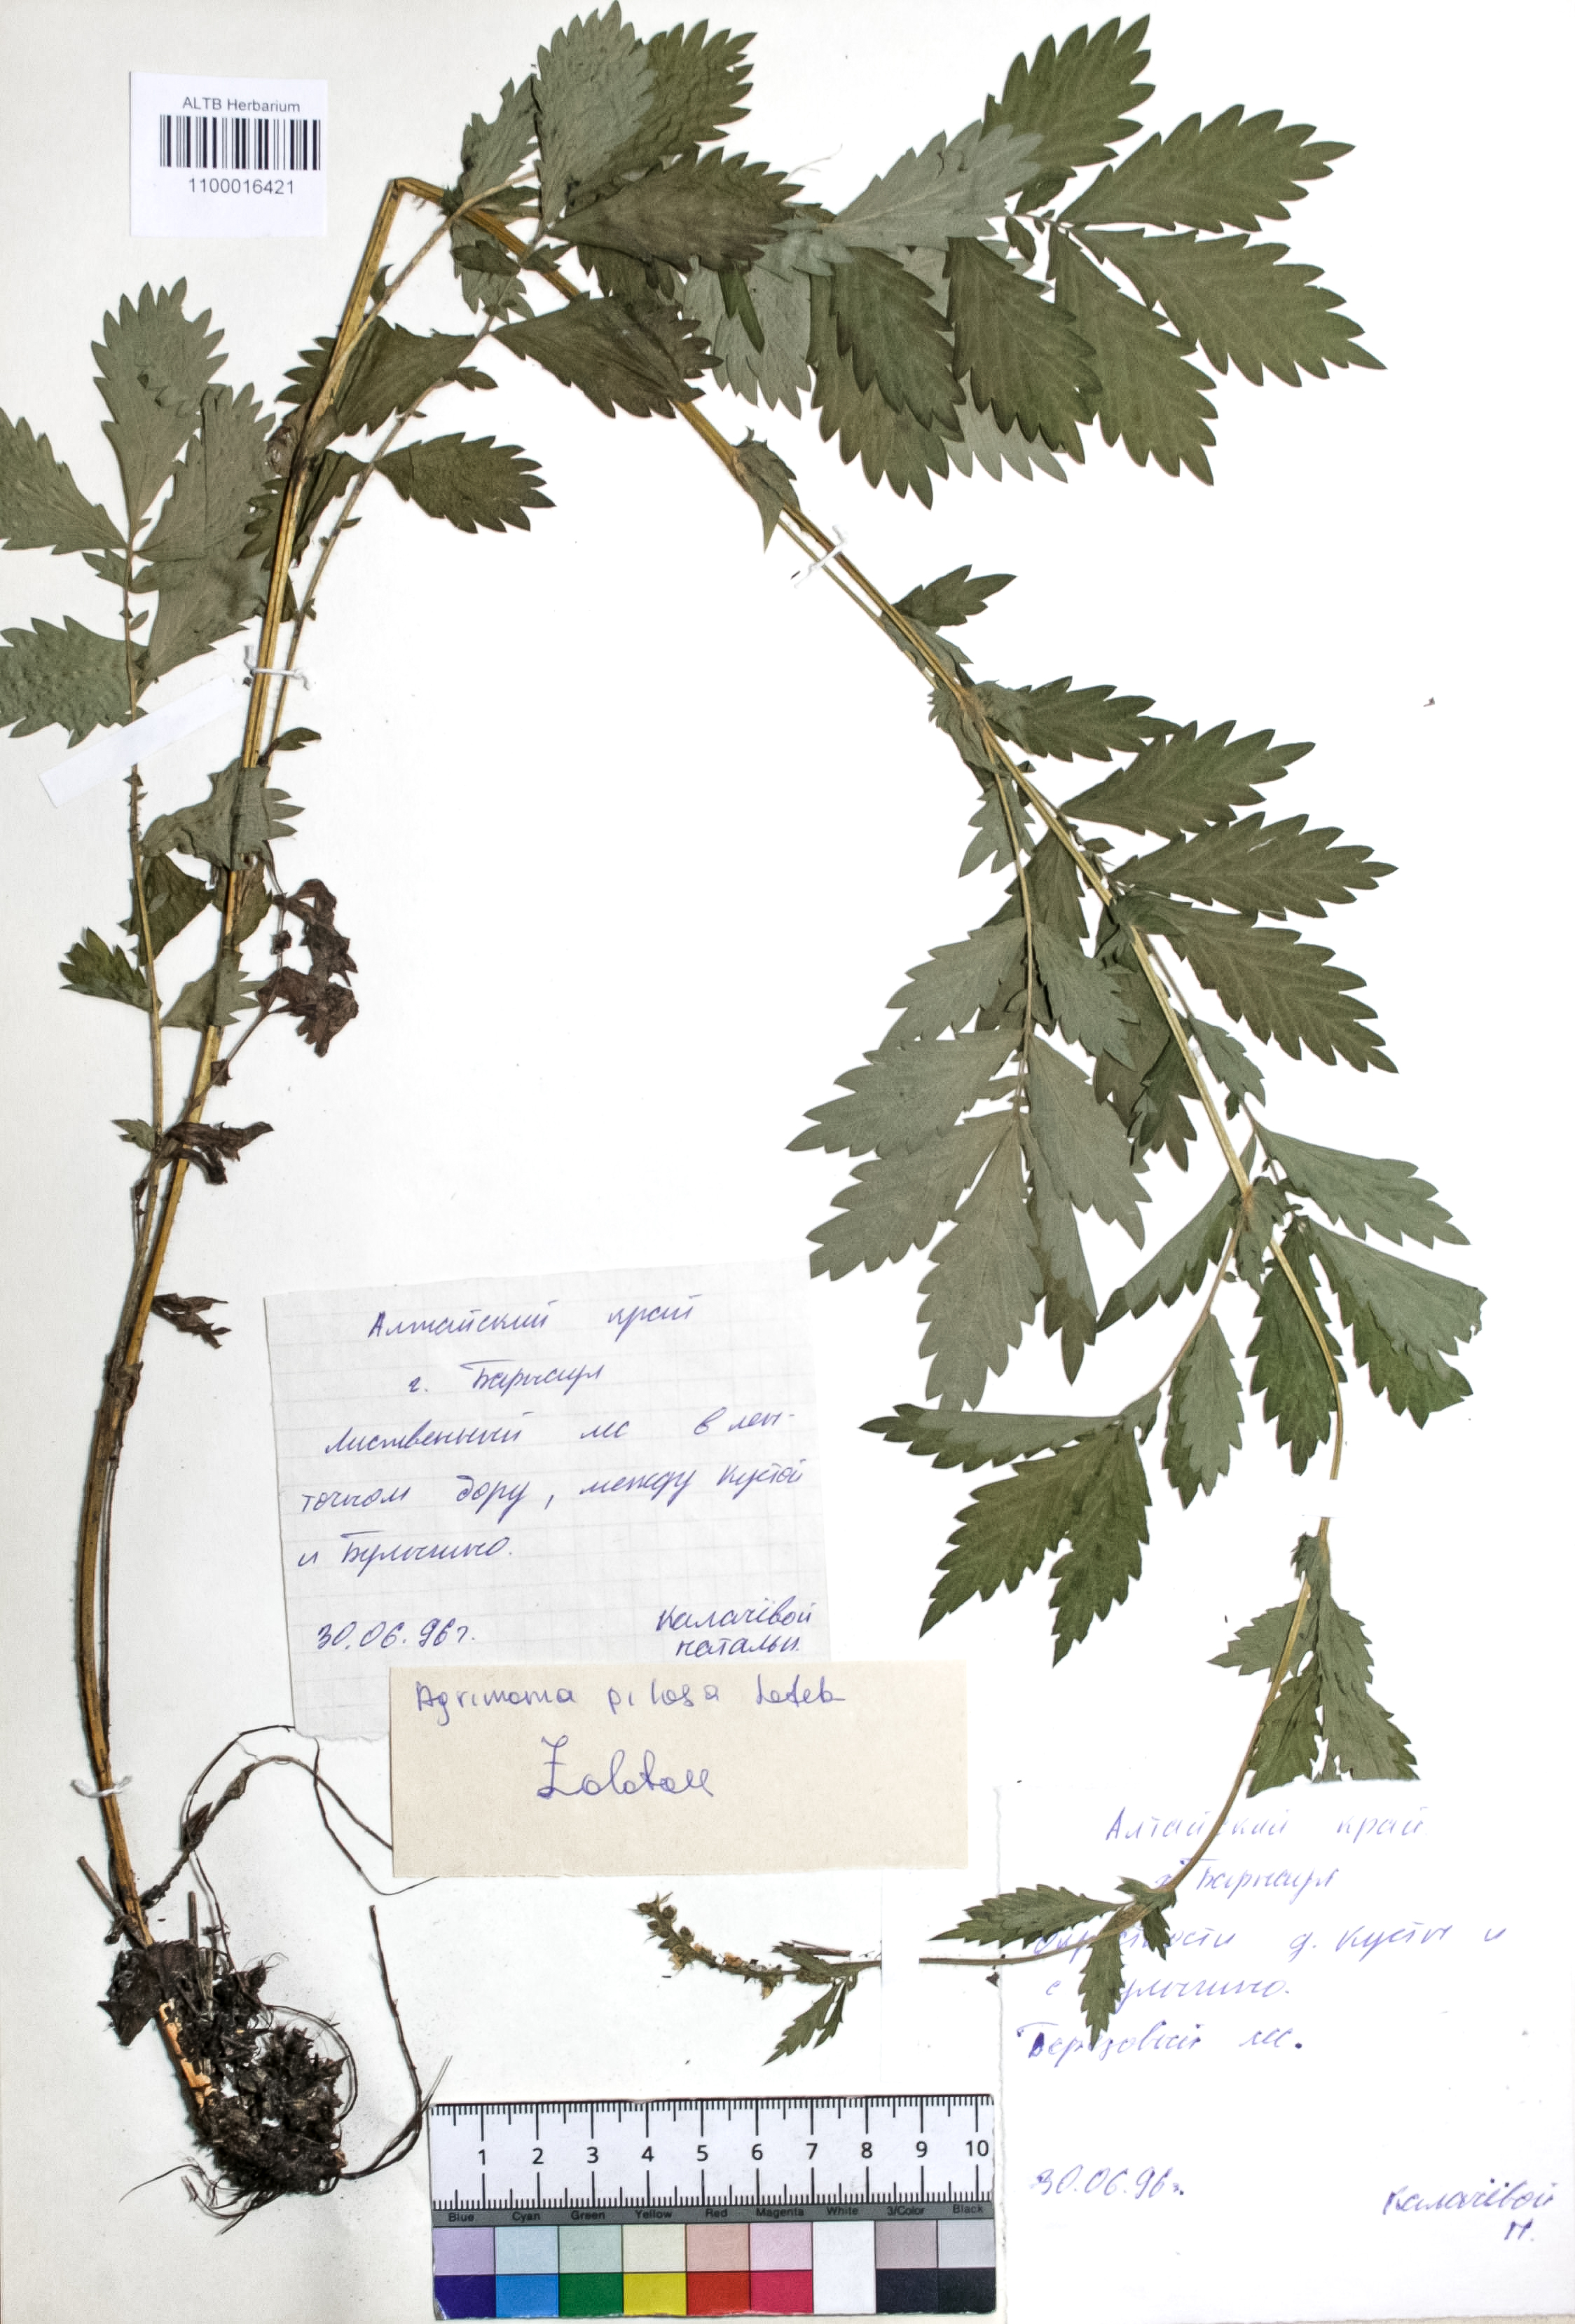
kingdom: Plantae
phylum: Tracheophyta
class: Magnoliopsida
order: Rosales
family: Rosaceae
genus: Agrimonia
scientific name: Agrimonia pilosa
